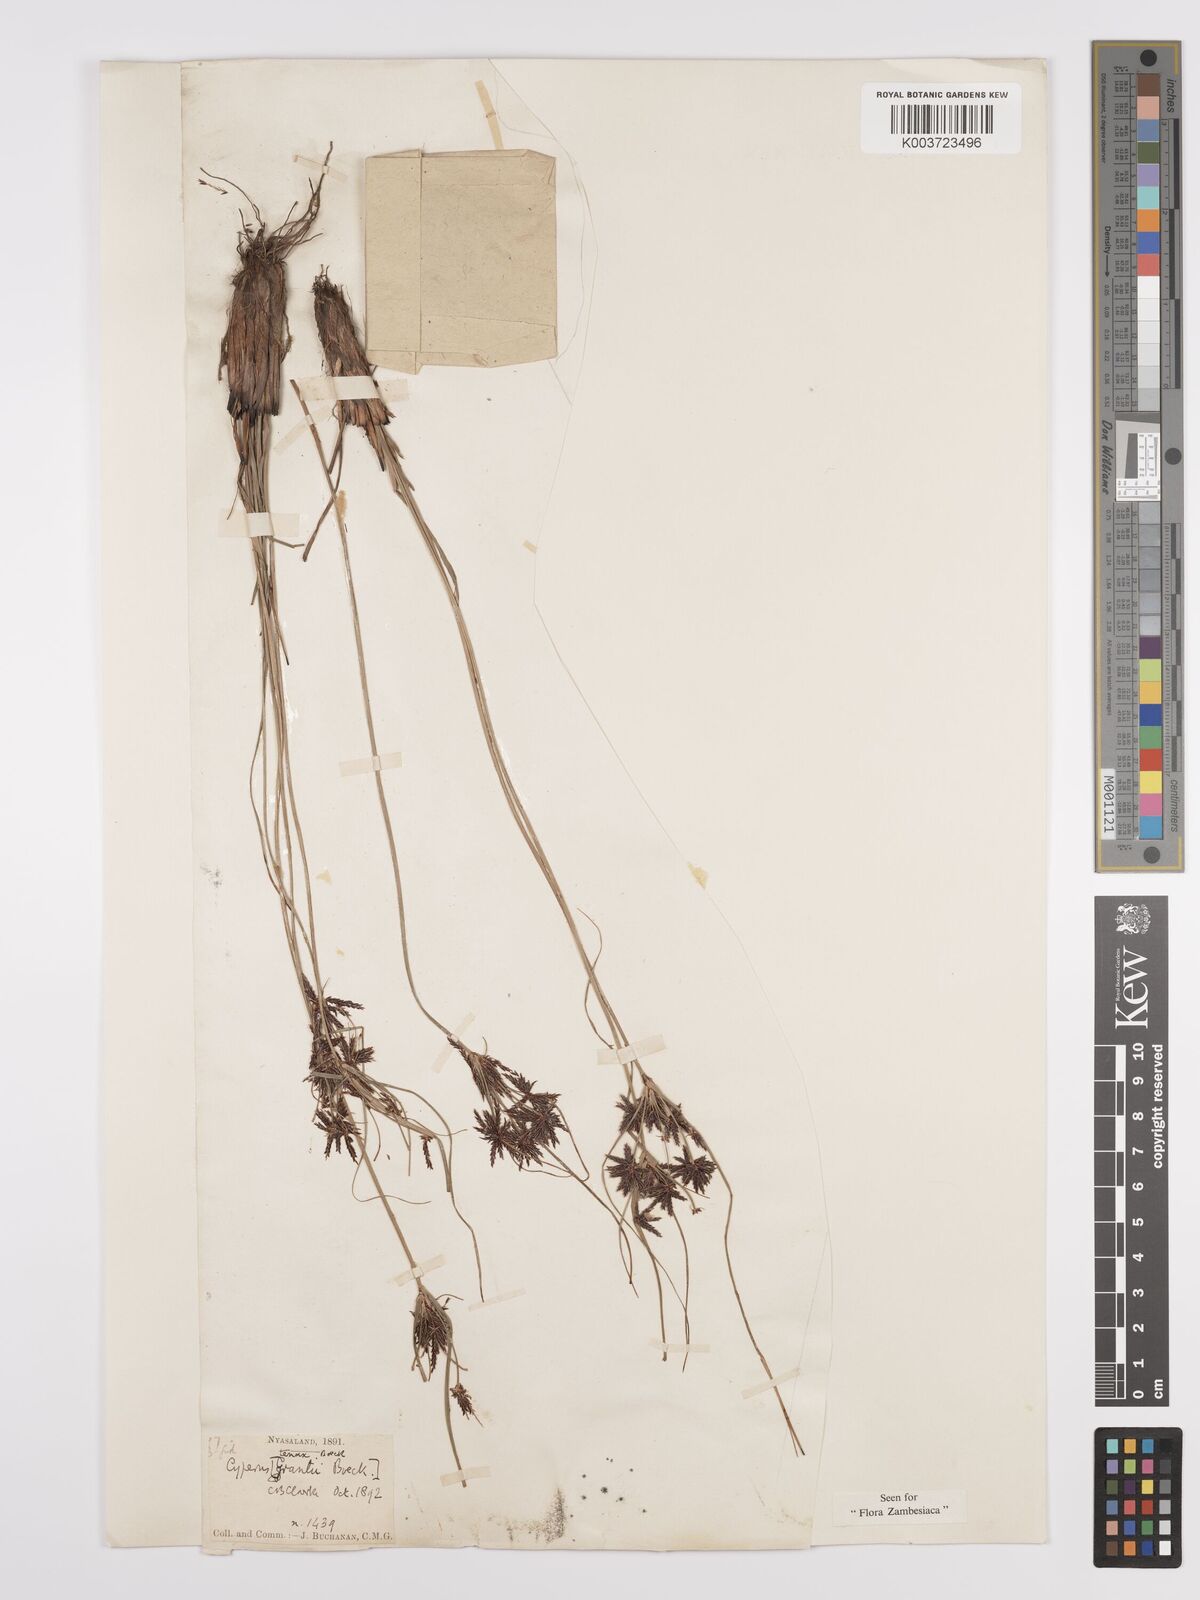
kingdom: Plantae
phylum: Tracheophyta
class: Liliopsida
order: Poales
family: Cyperaceae
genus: Cyperus
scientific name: Cyperus tenax
